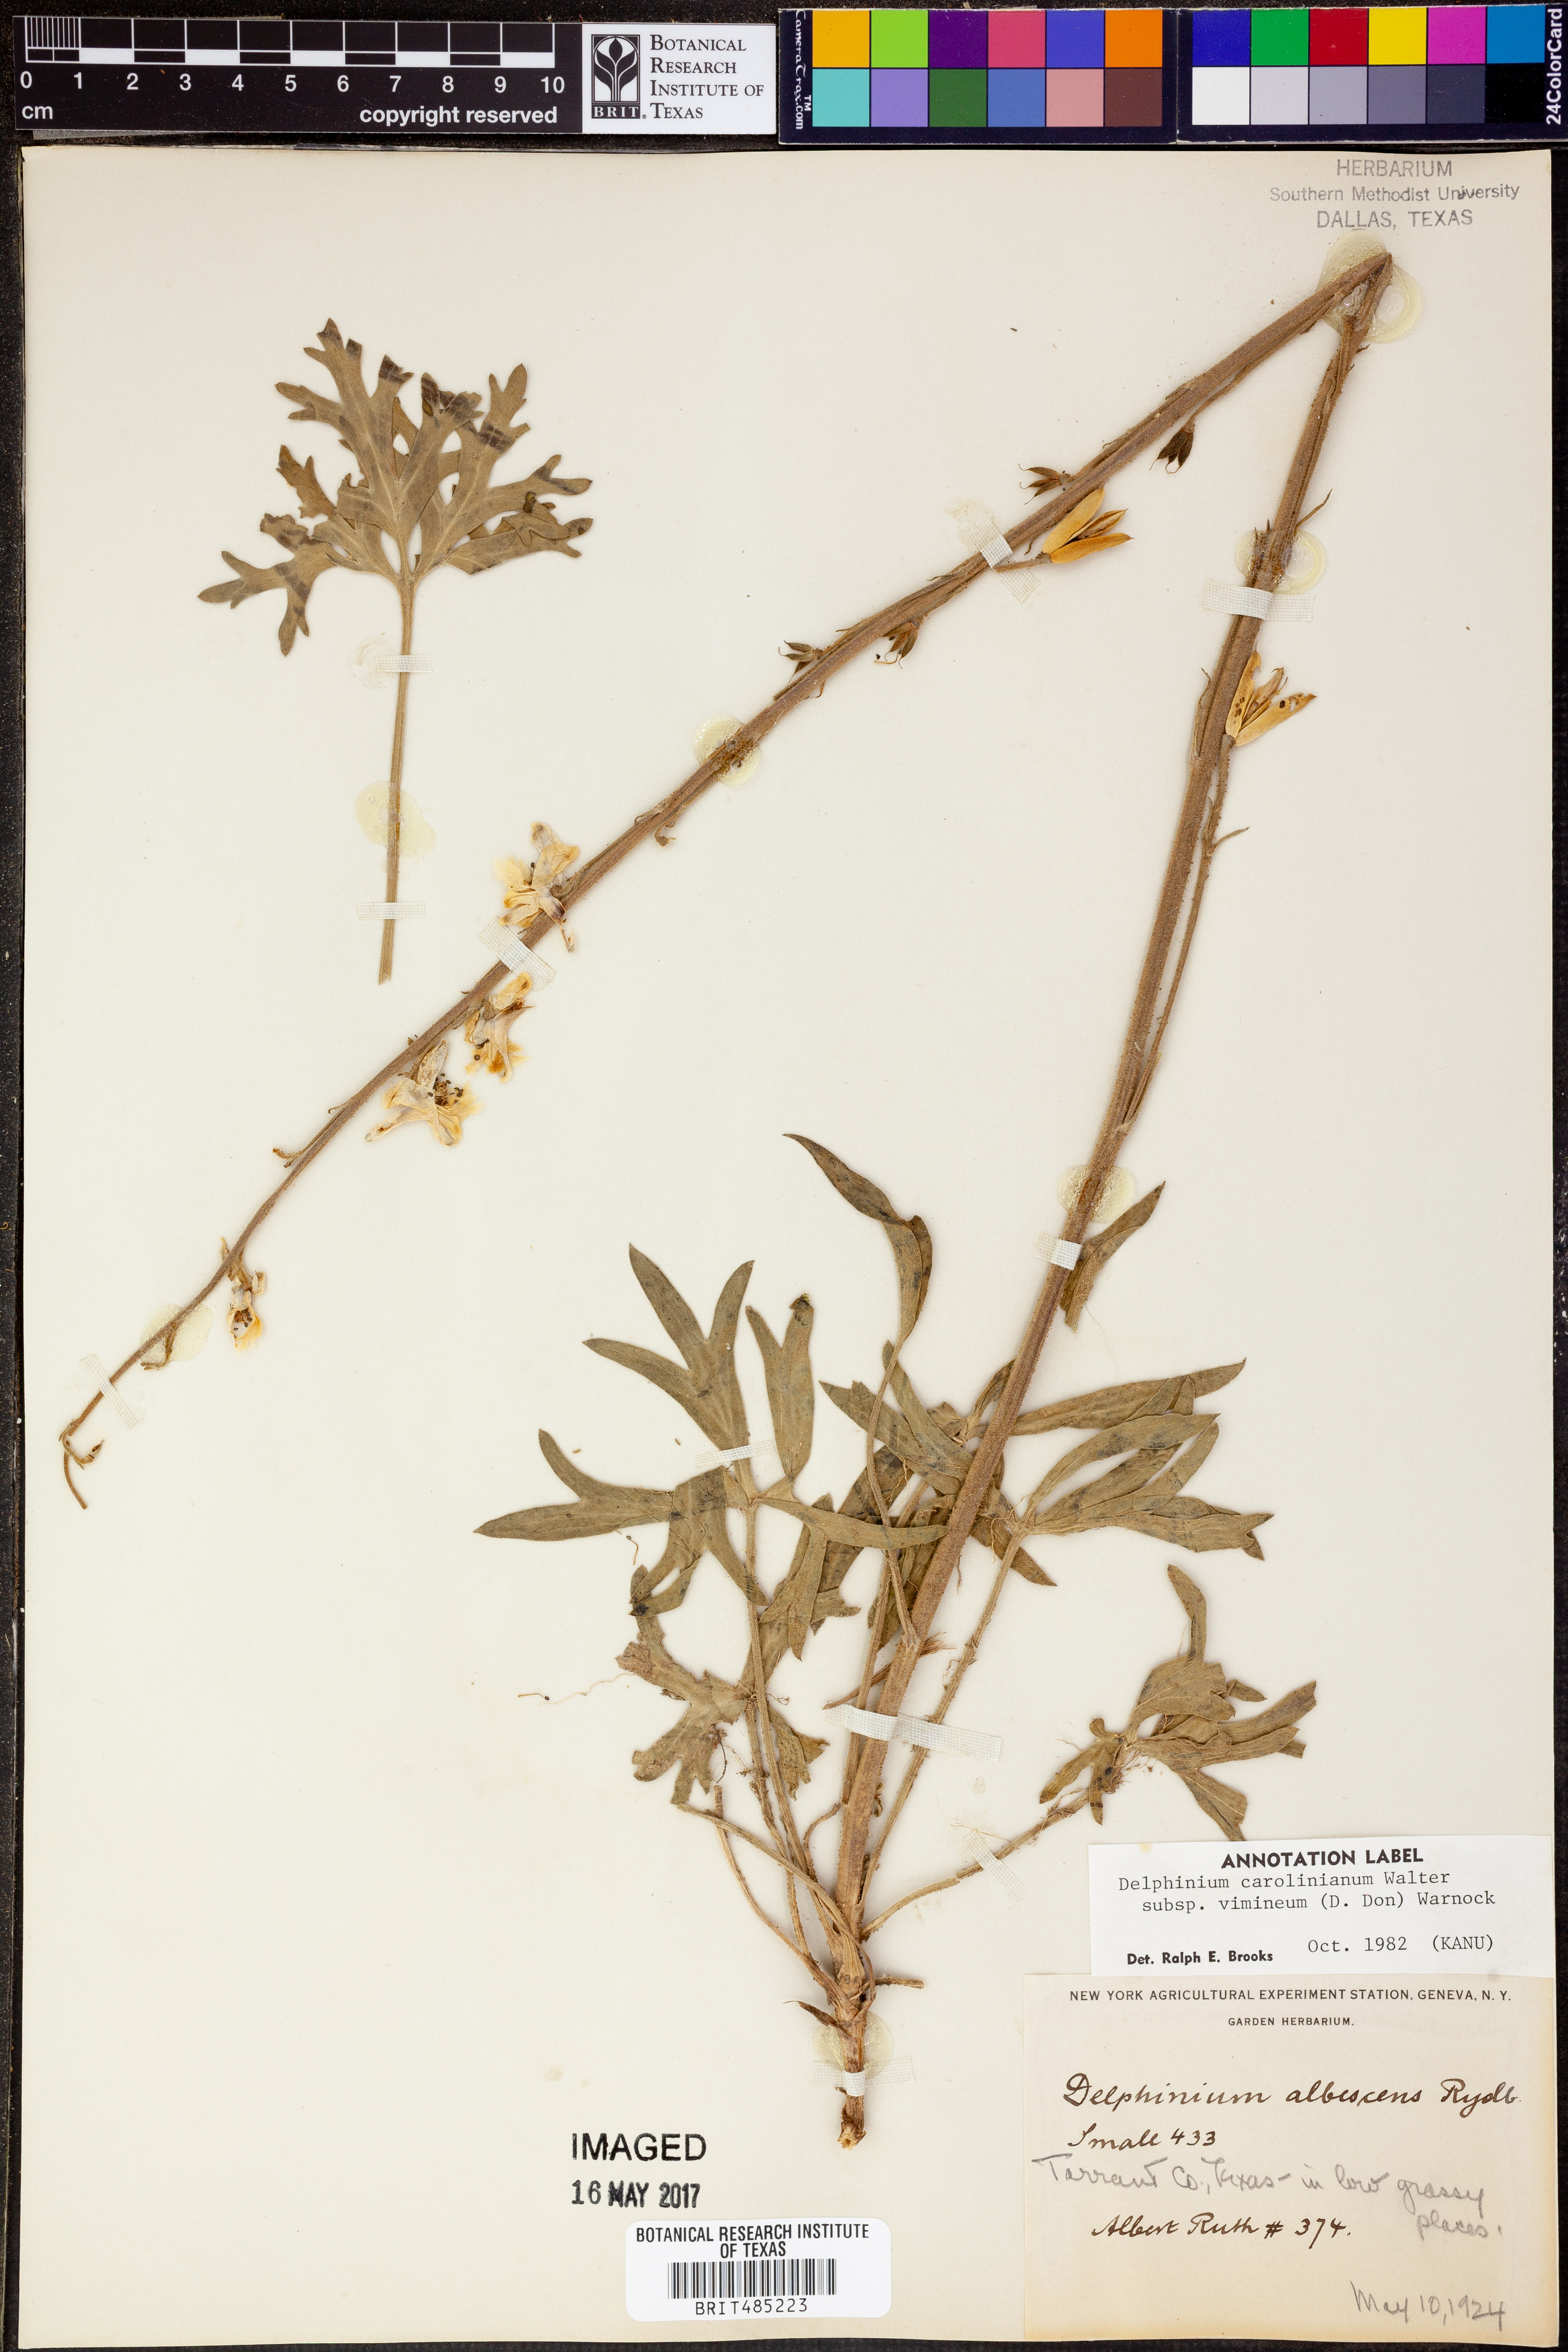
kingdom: Plantae
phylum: Tracheophyta
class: Magnoliopsida
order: Ranunculales
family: Ranunculaceae
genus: Delphinium
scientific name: Delphinium carolinianum
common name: Carolina larkspur
